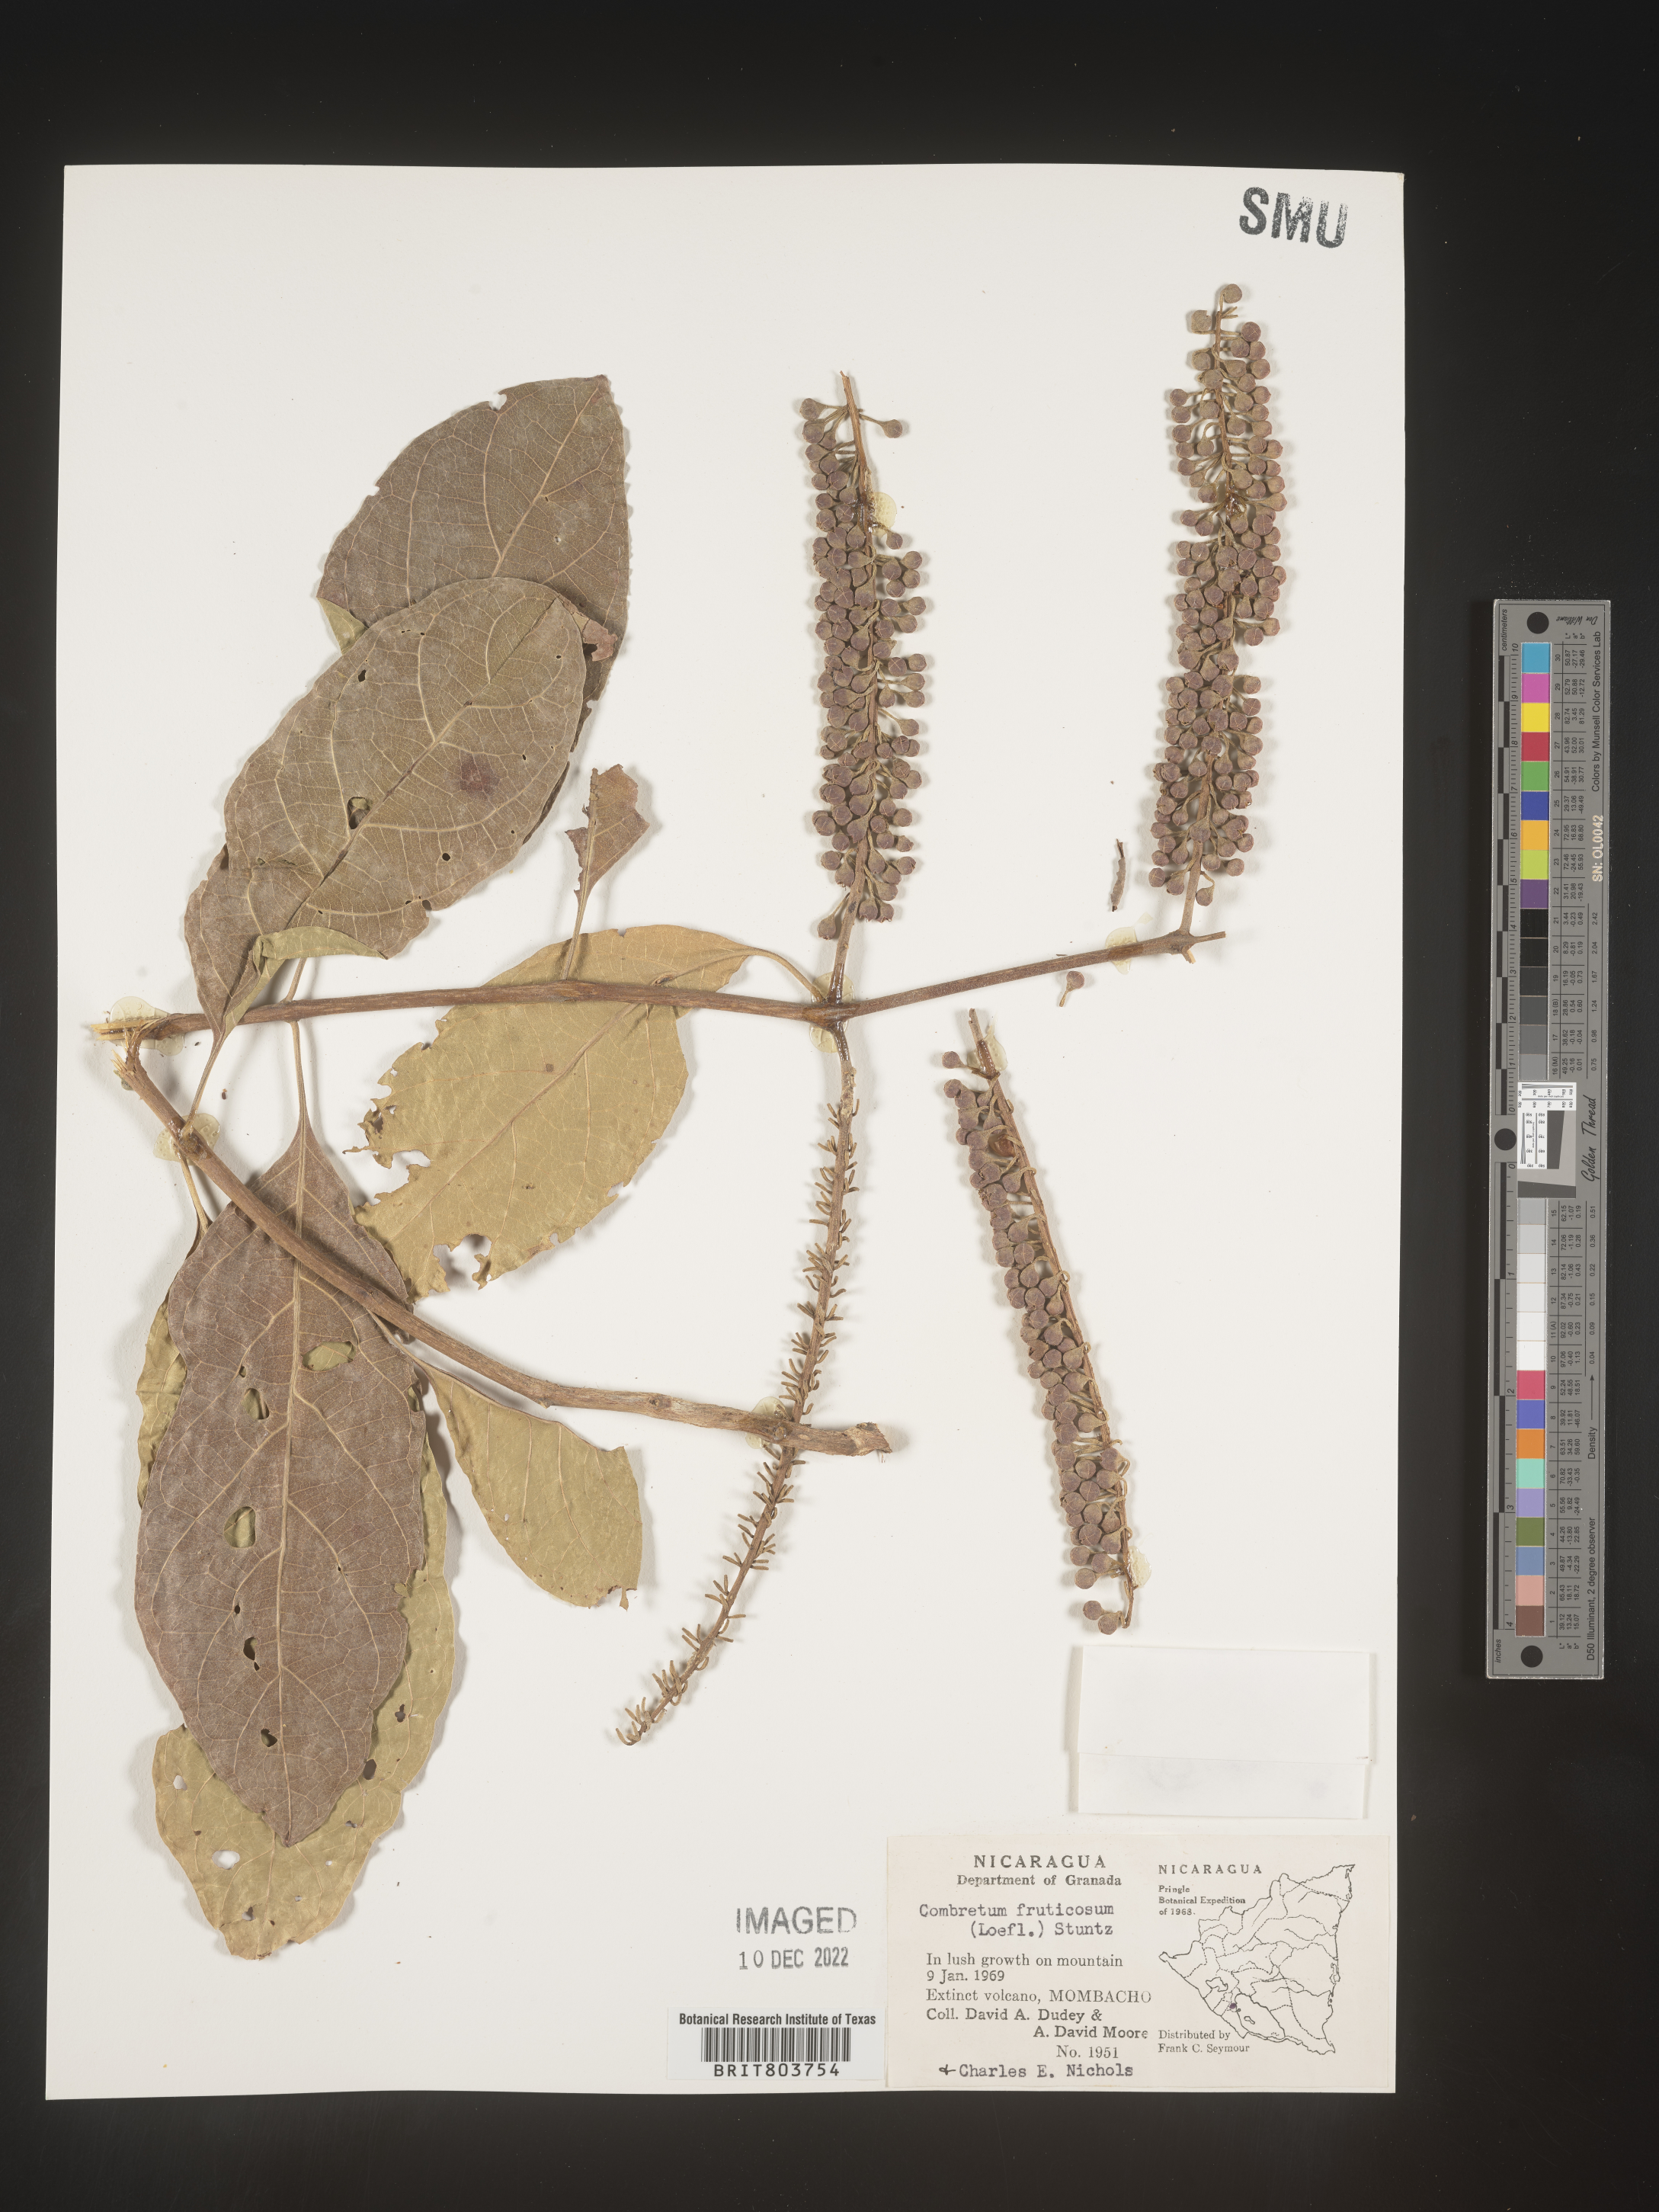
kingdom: Plantae
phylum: Tracheophyta
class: Magnoliopsida
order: Myrtales
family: Combretaceae
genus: Combretum
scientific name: Combretum
